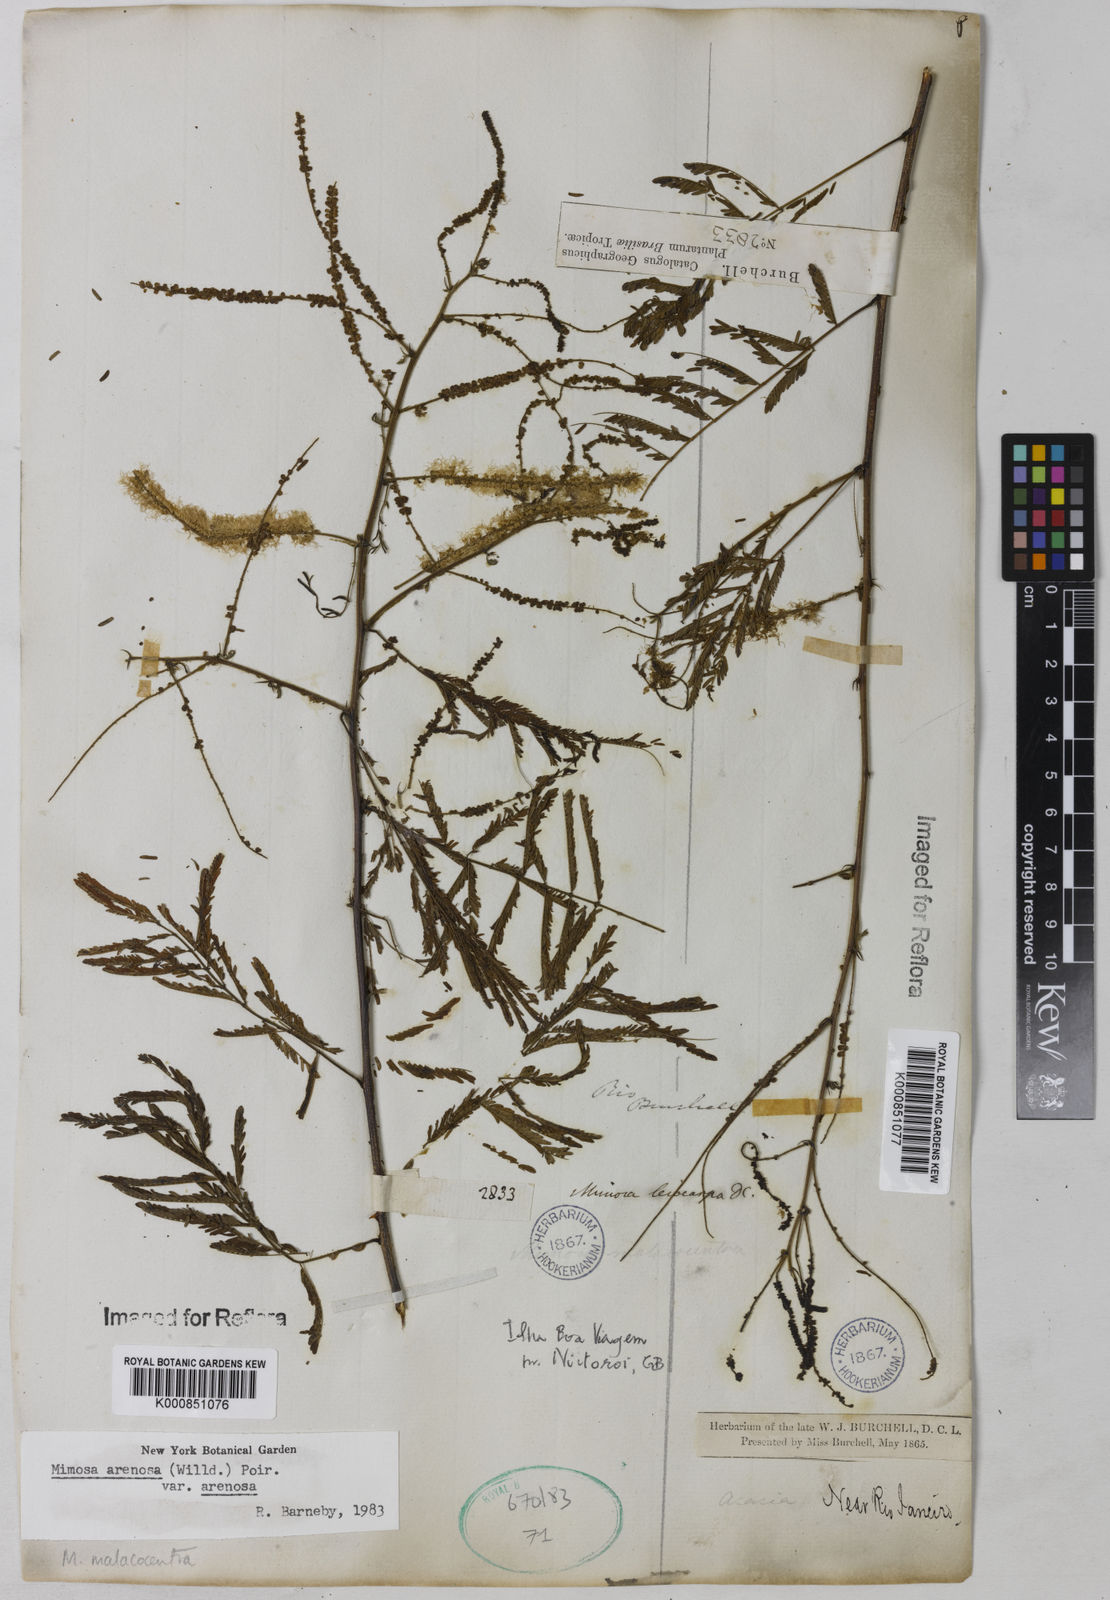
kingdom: Plantae
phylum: Tracheophyta
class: Magnoliopsida
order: Fabales
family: Fabaceae
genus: Mimosa
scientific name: Mimosa arenosa
